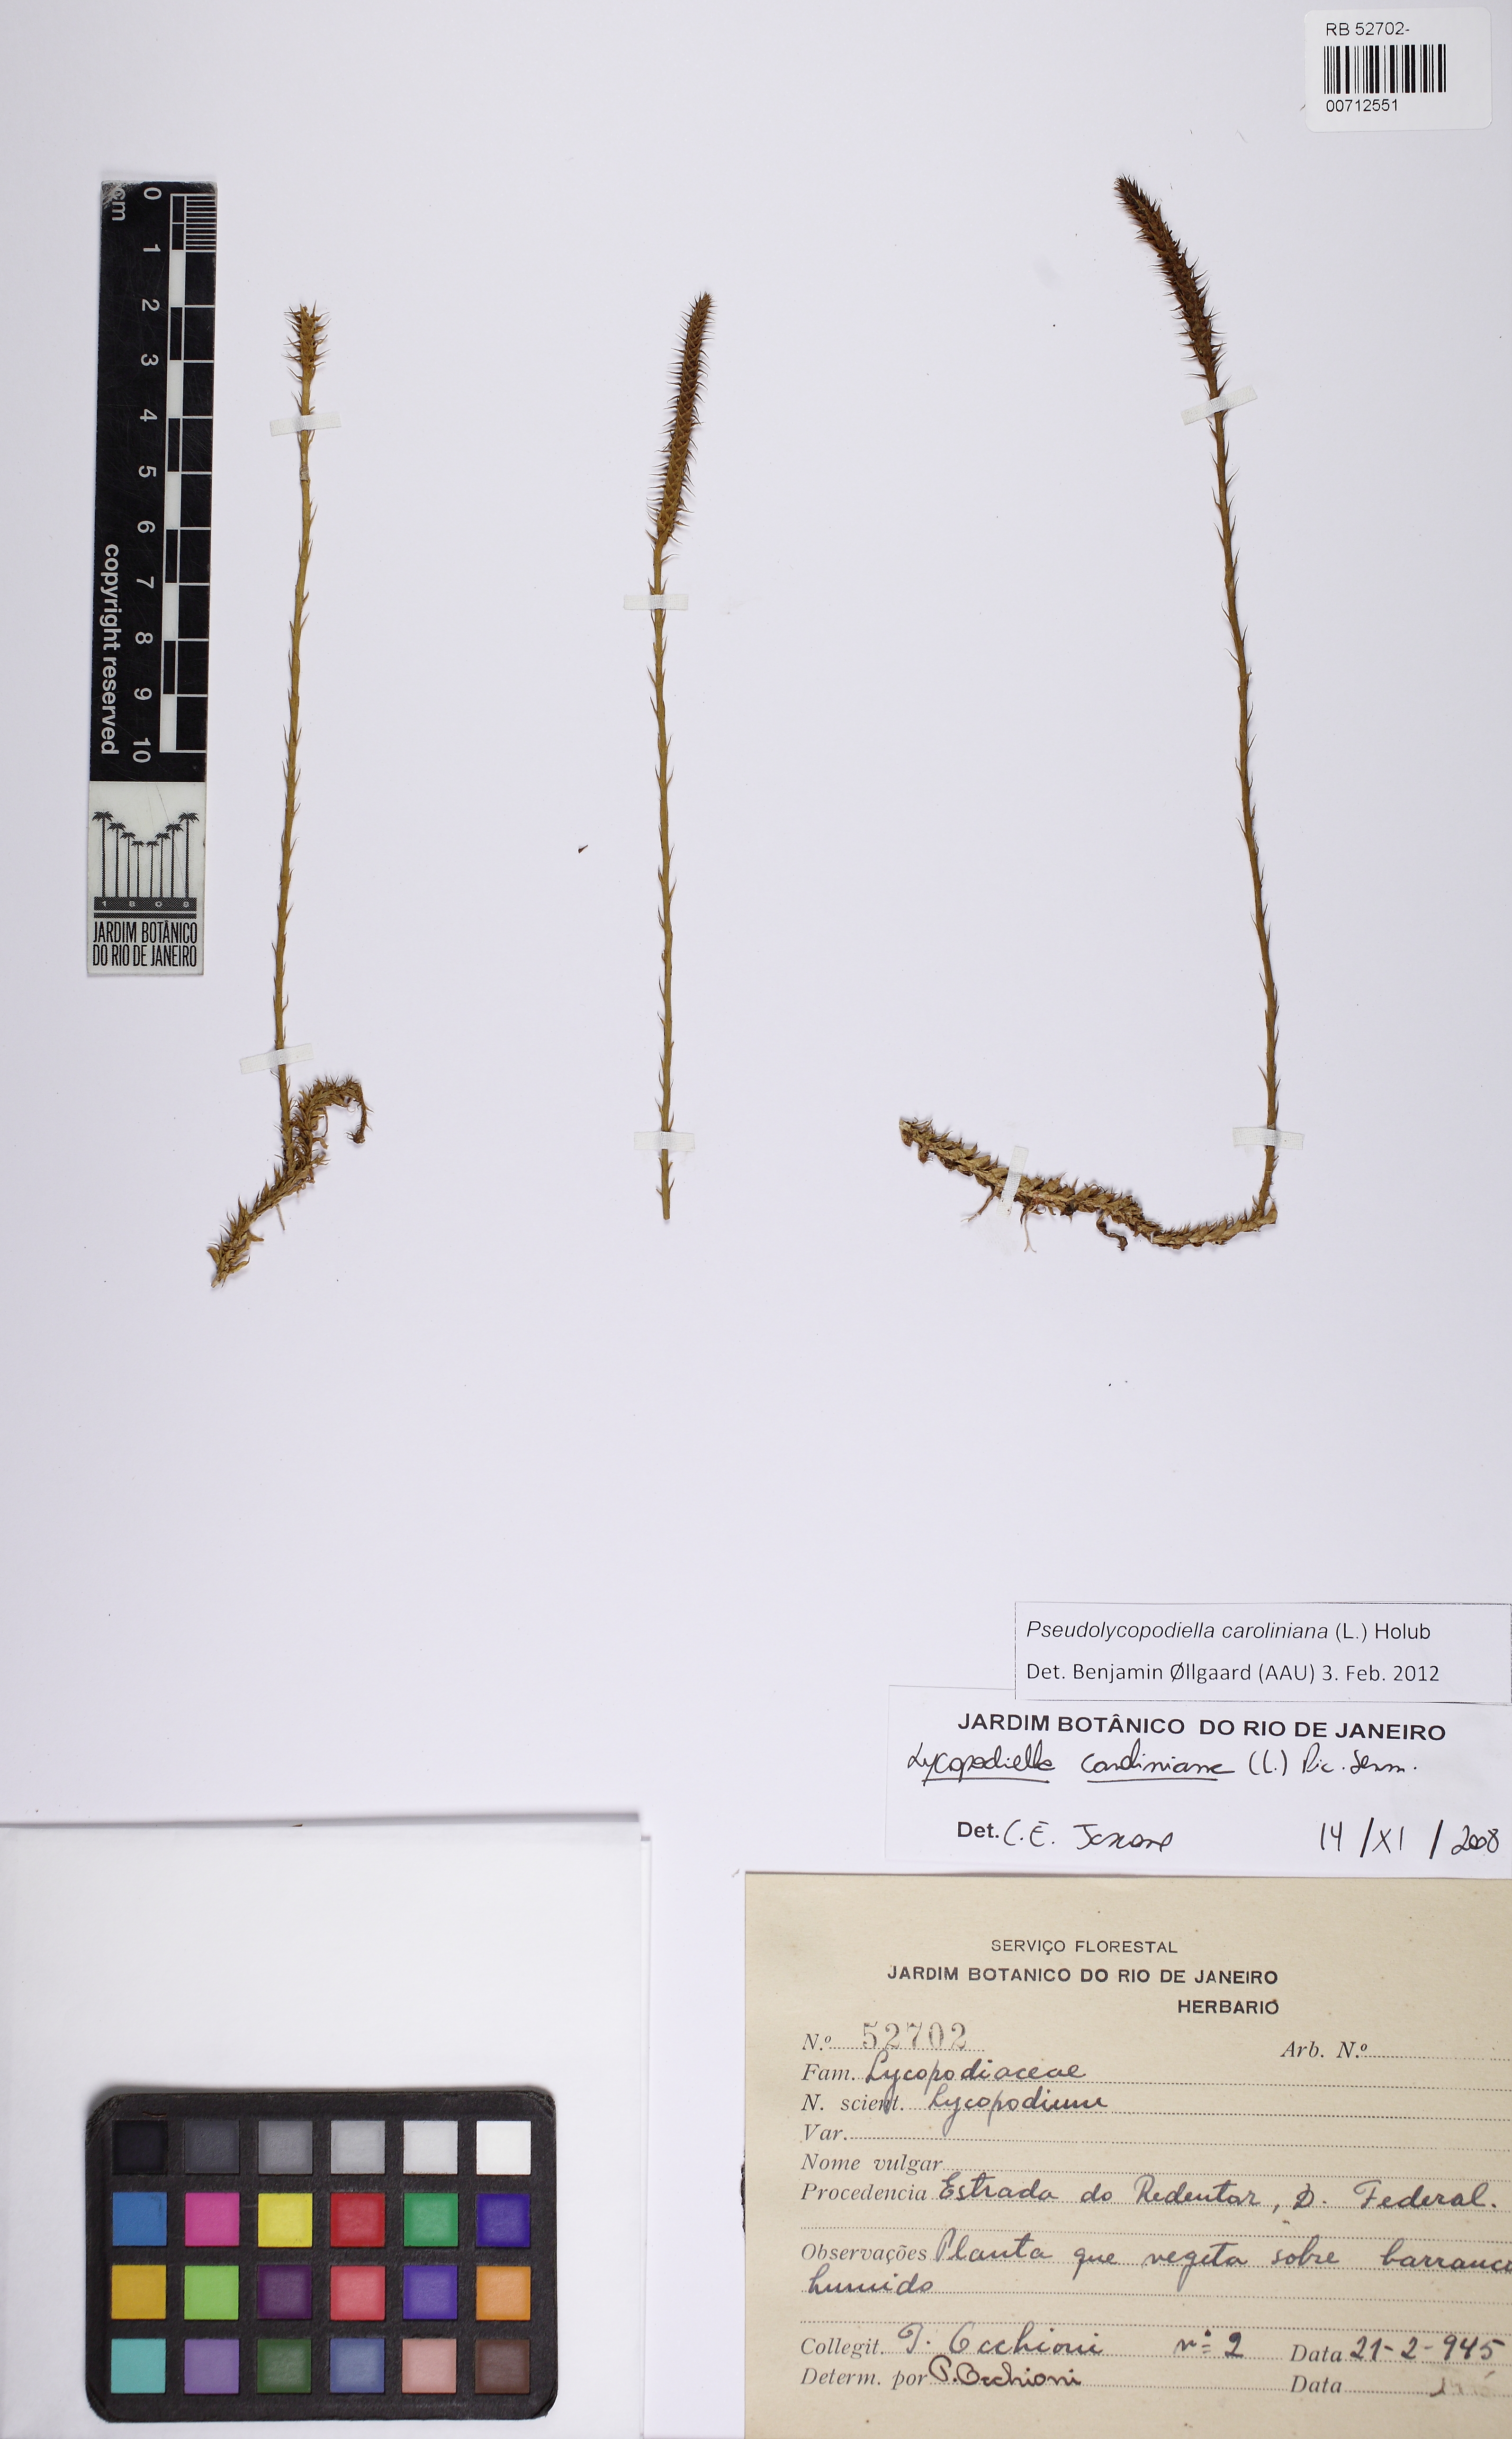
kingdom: Plantae
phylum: Tracheophyta
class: Lycopodiopsida
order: Lycopodiales
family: Lycopodiaceae
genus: Pseudolycopodiella
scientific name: Pseudolycopodiella caroliniana
